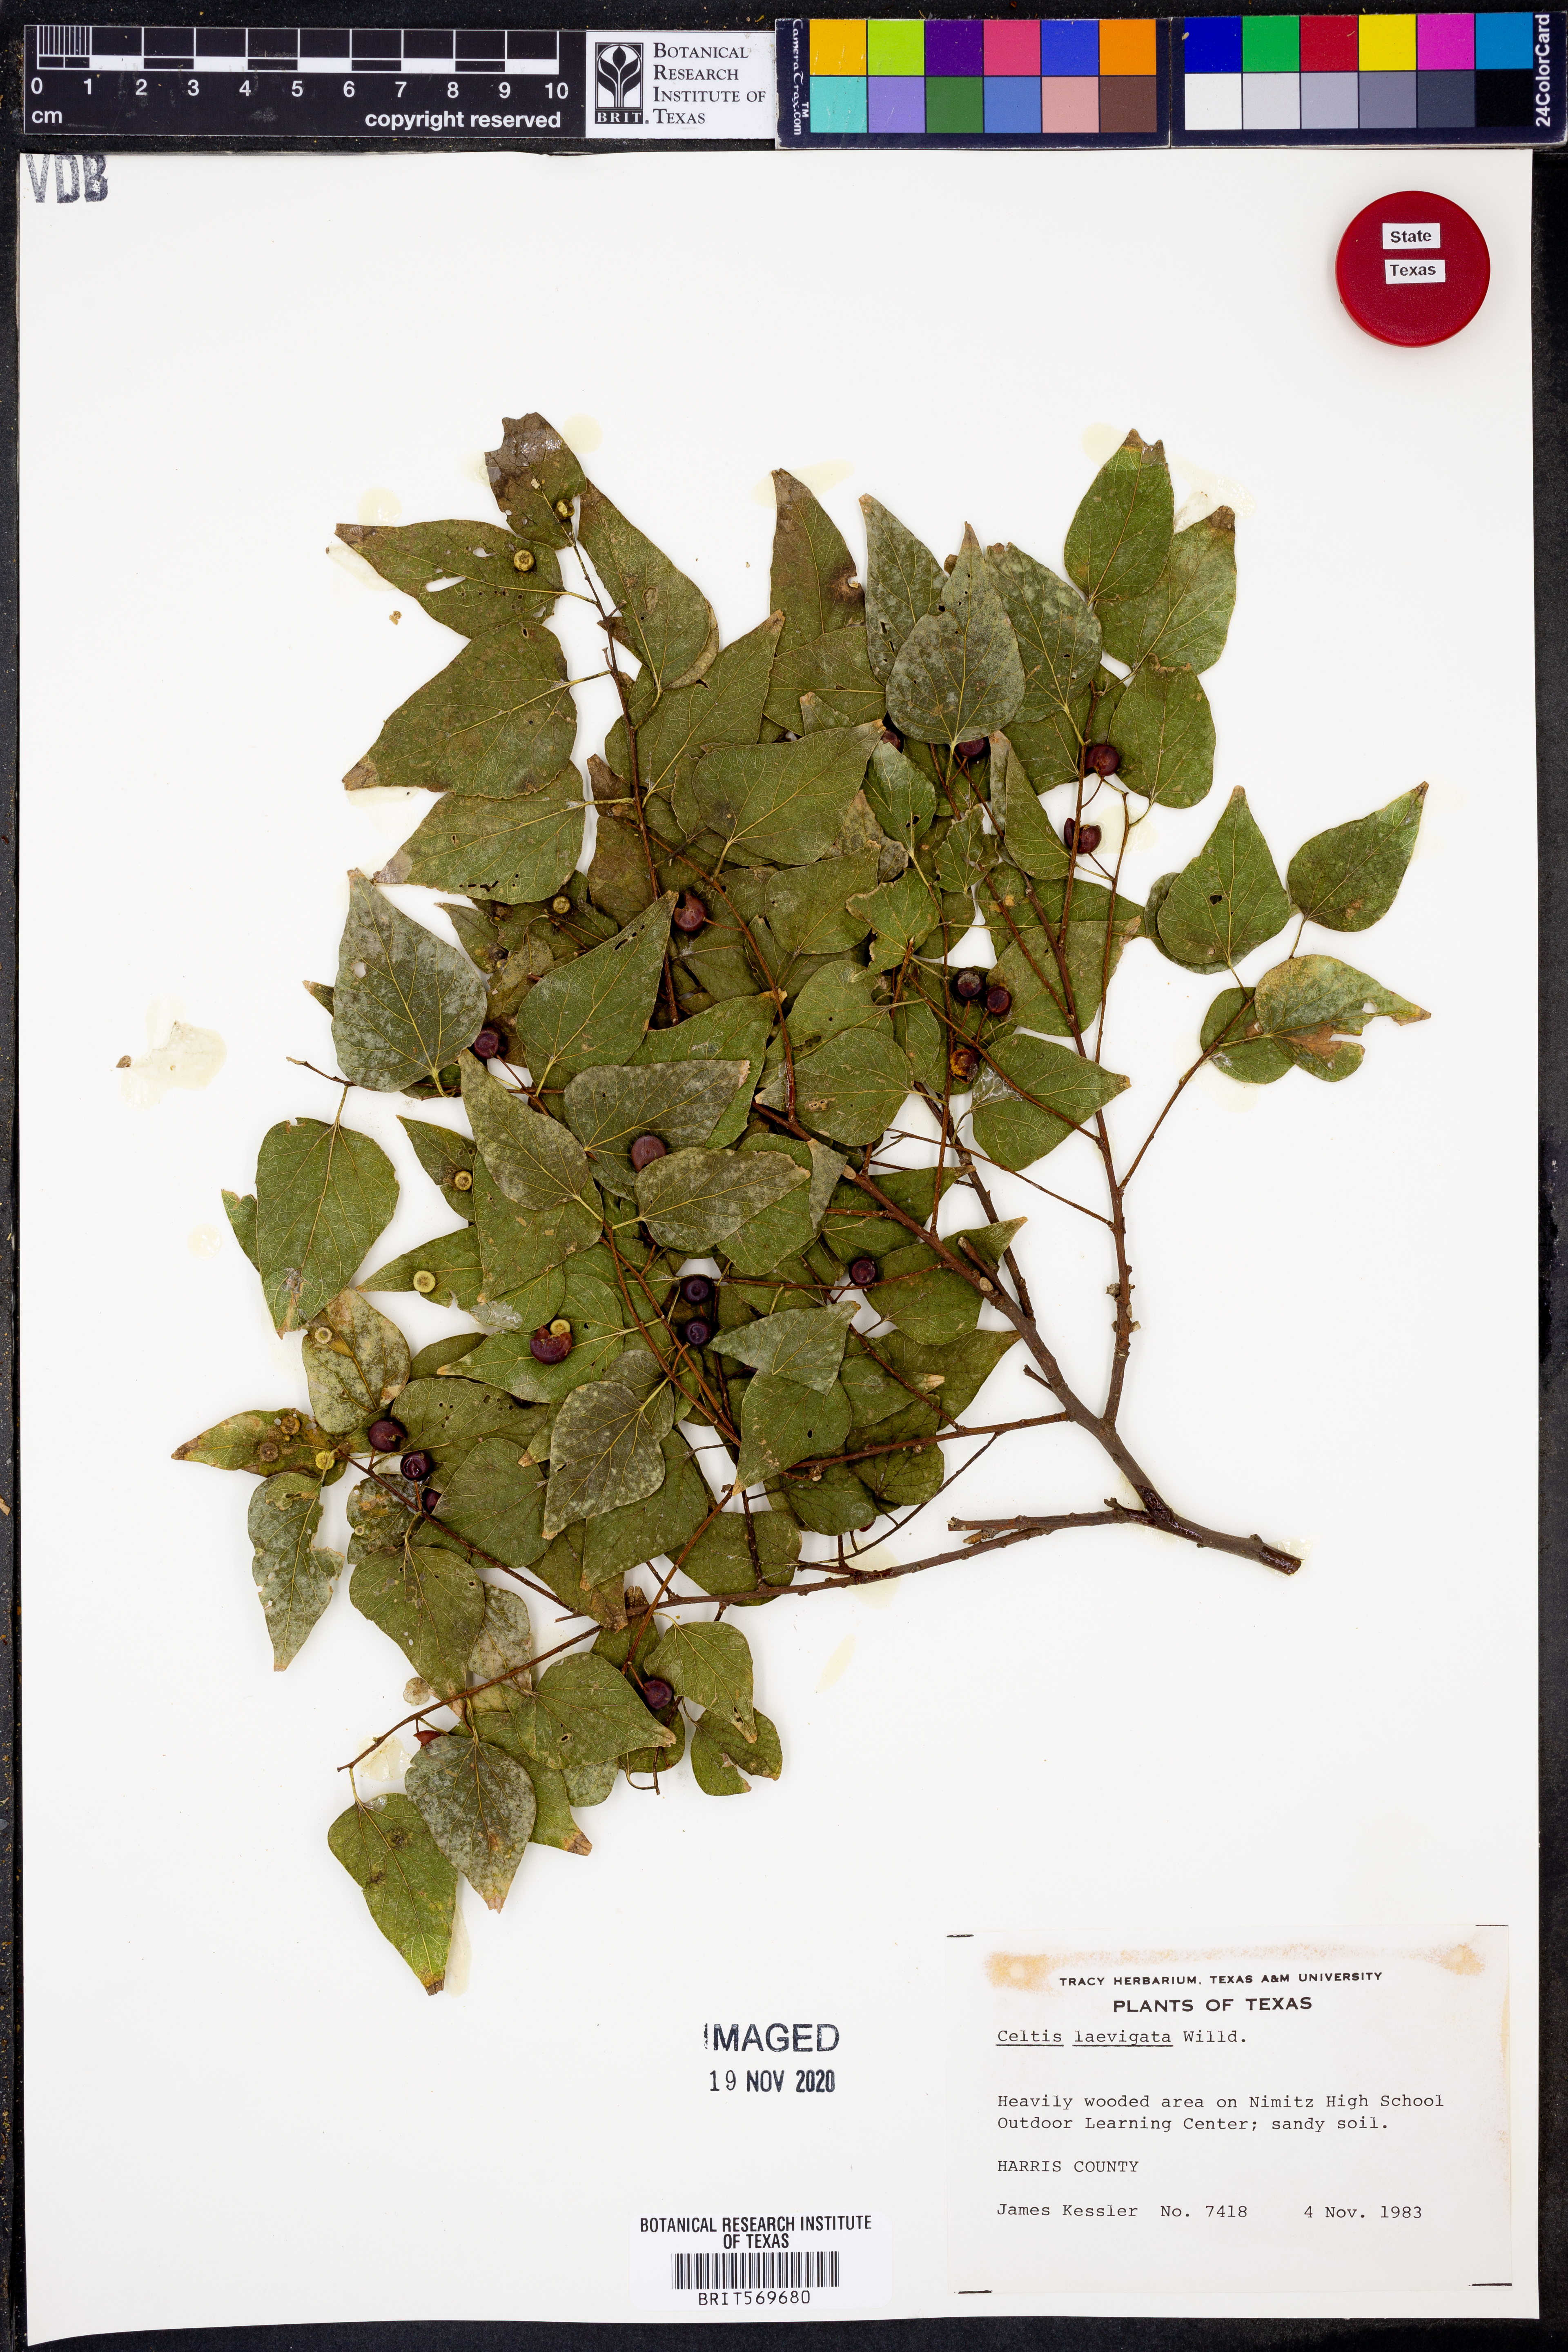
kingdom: Plantae
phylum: Tracheophyta
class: Magnoliopsida
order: Rosales
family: Cannabaceae
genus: Celtis
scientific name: Celtis laevigata
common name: Sugarberry
